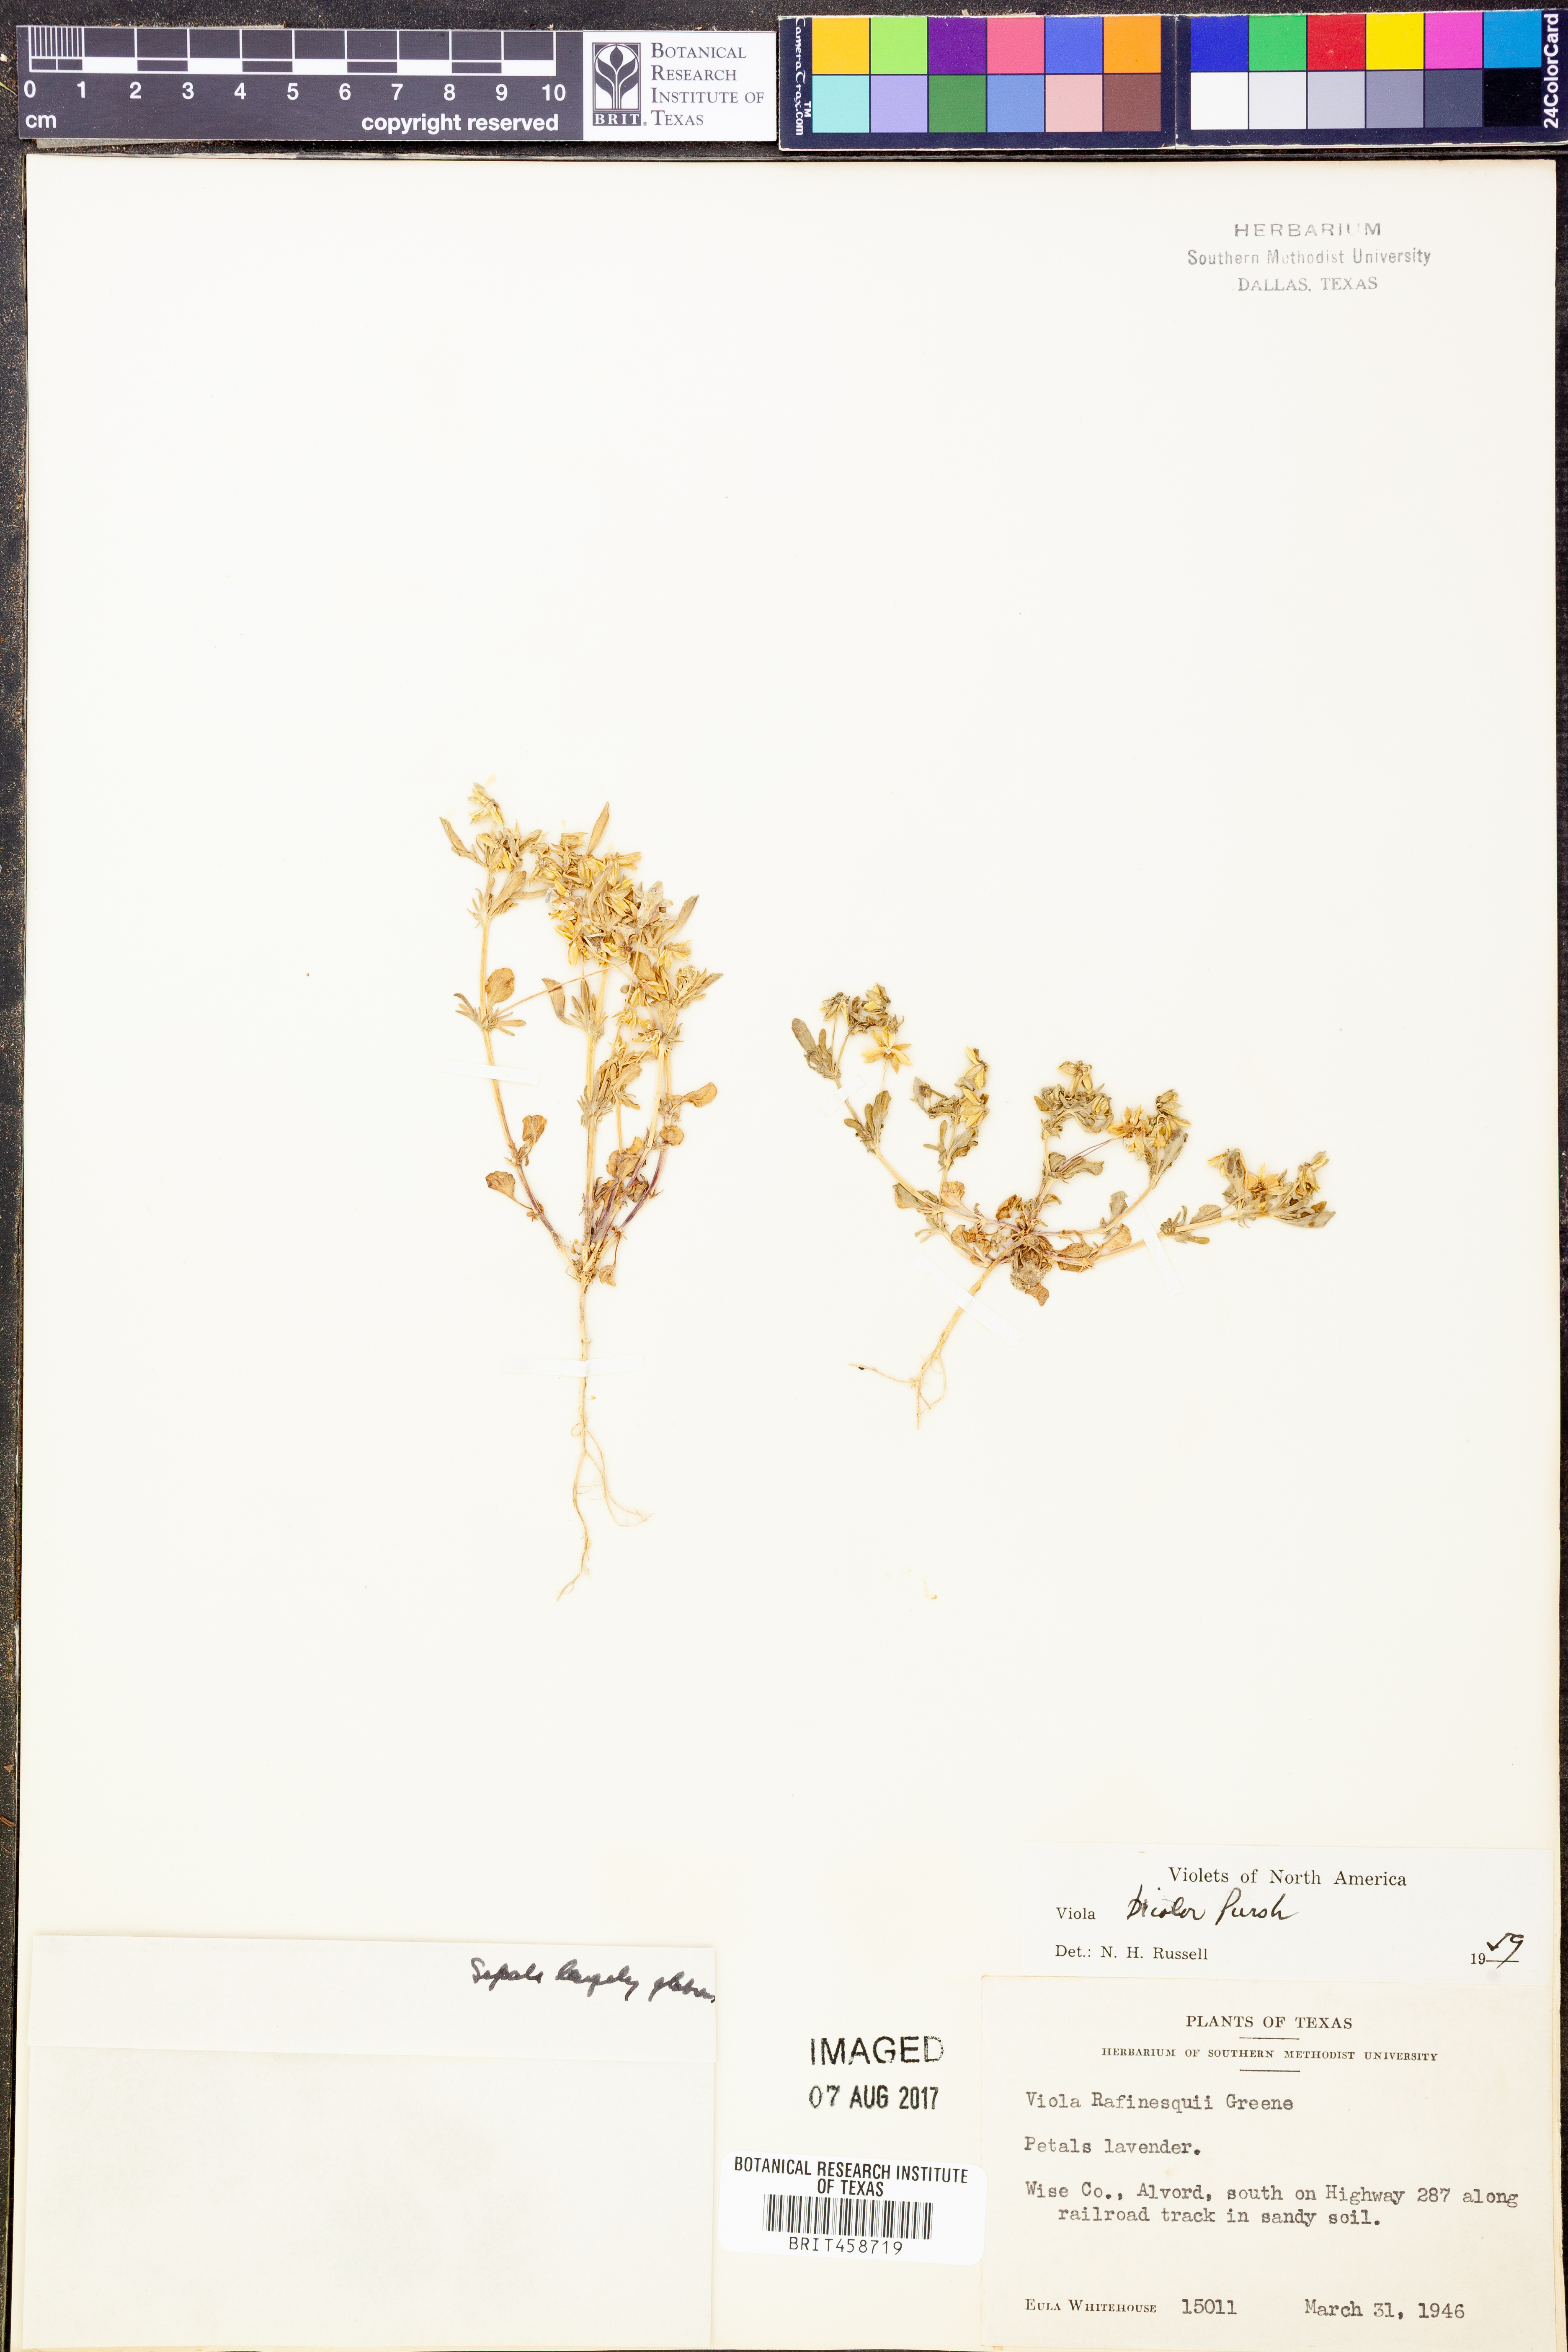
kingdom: Plantae
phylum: Tracheophyta
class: Magnoliopsida
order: Malpighiales
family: Violaceae
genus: Viola
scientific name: Viola rafinesquei
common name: American field pansy
